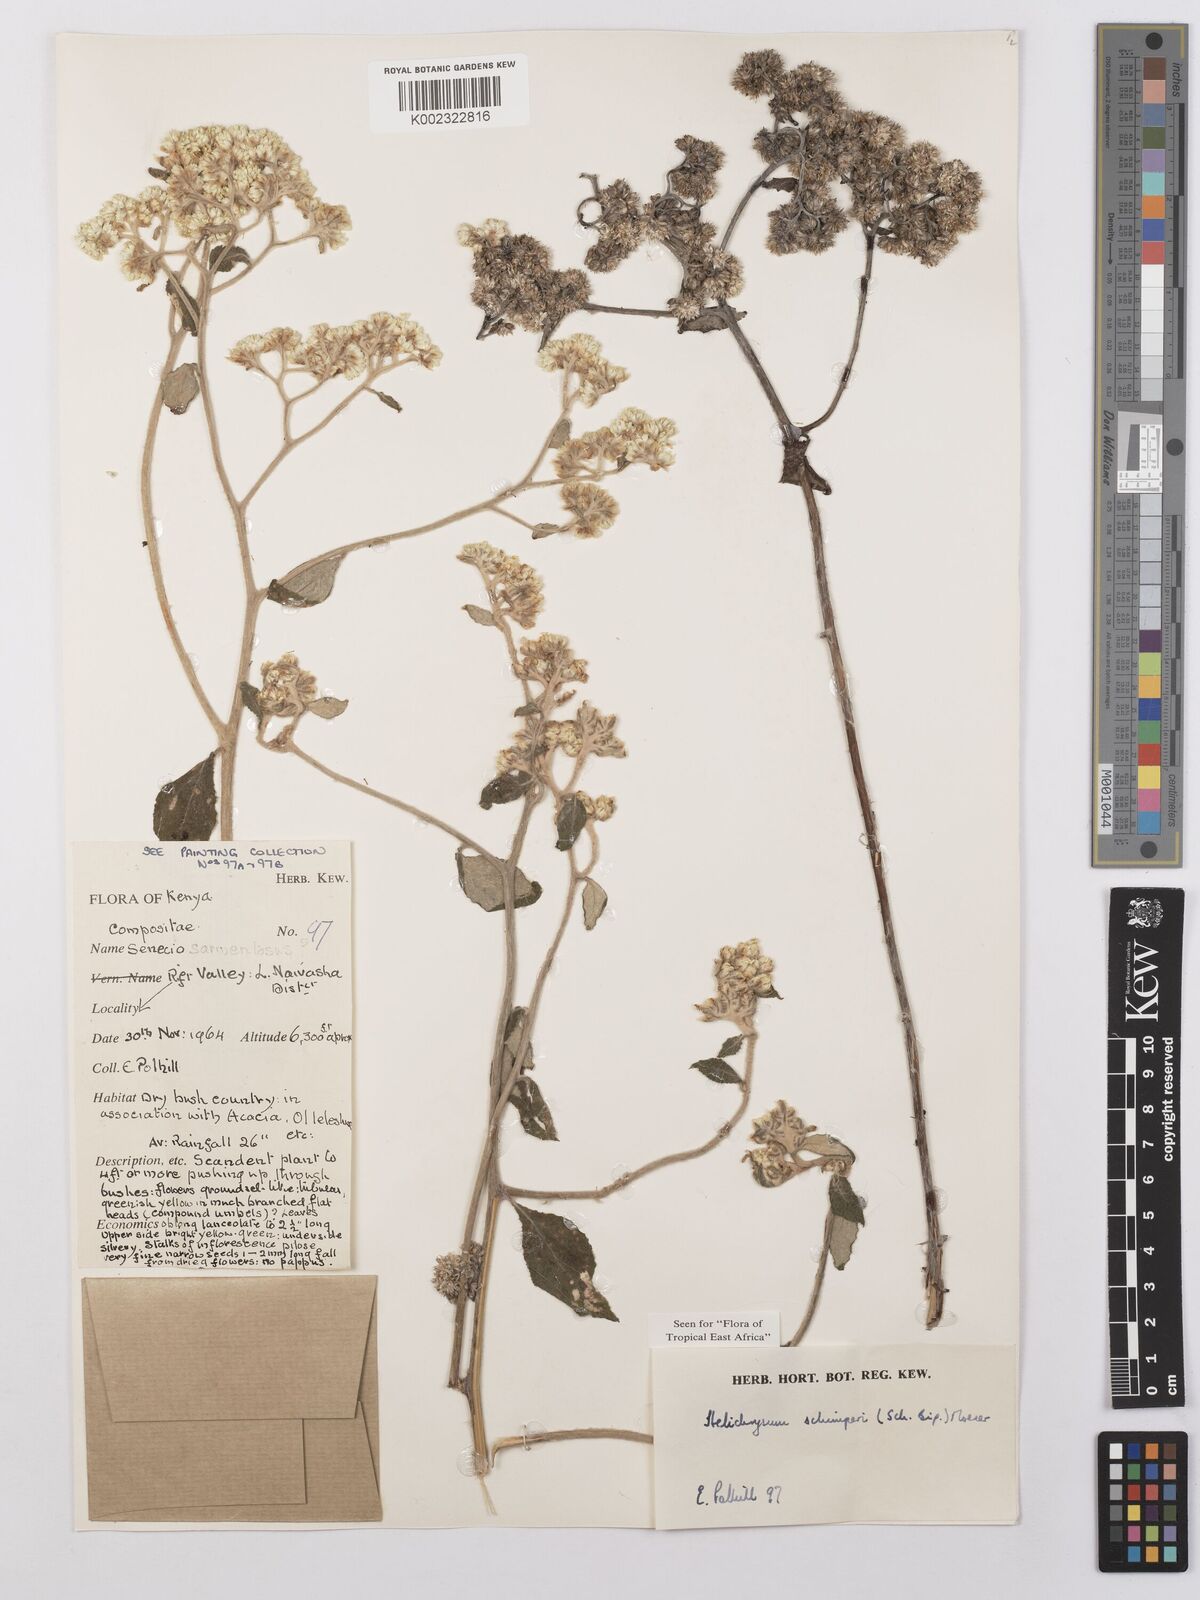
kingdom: Plantae
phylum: Tracheophyta
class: Magnoliopsida
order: Asterales
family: Asteraceae
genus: Helichrysum
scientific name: Helichrysum schimperi
